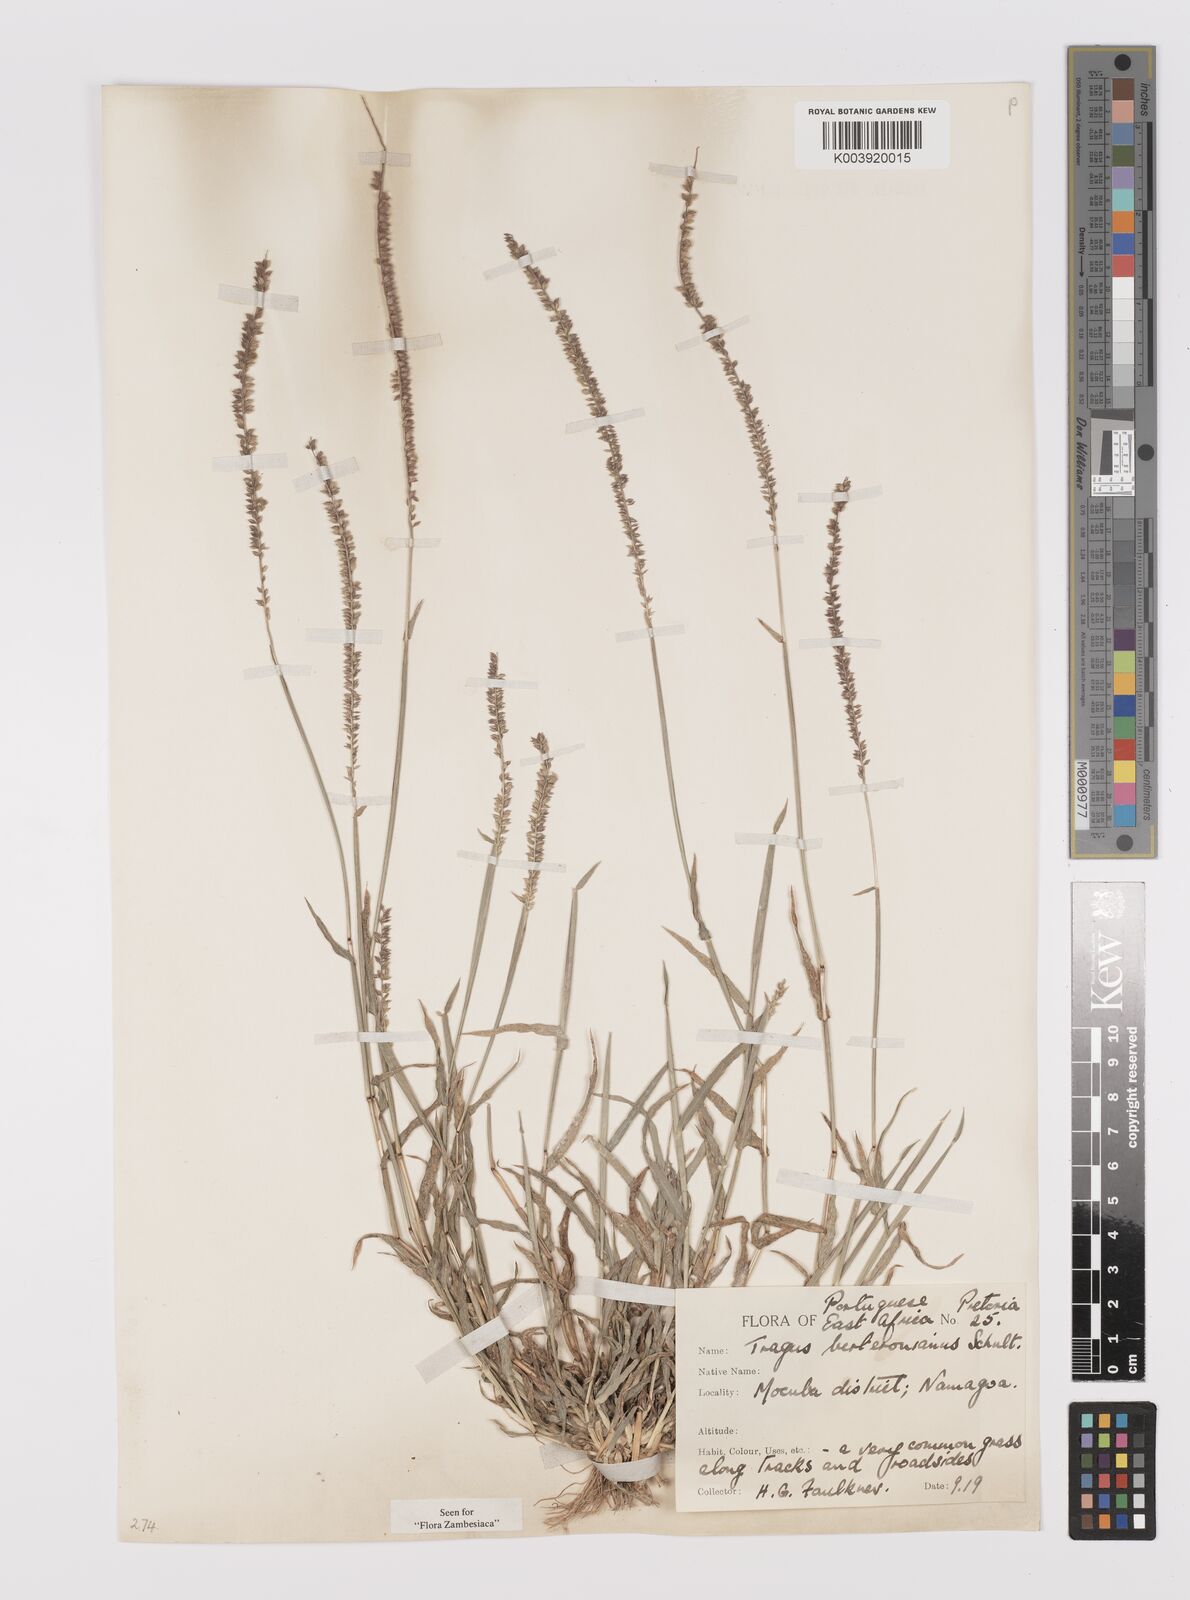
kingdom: Plantae
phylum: Tracheophyta
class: Liliopsida
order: Poales
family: Poaceae
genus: Tragus
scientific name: Tragus berteronianus
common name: African bur-grass
